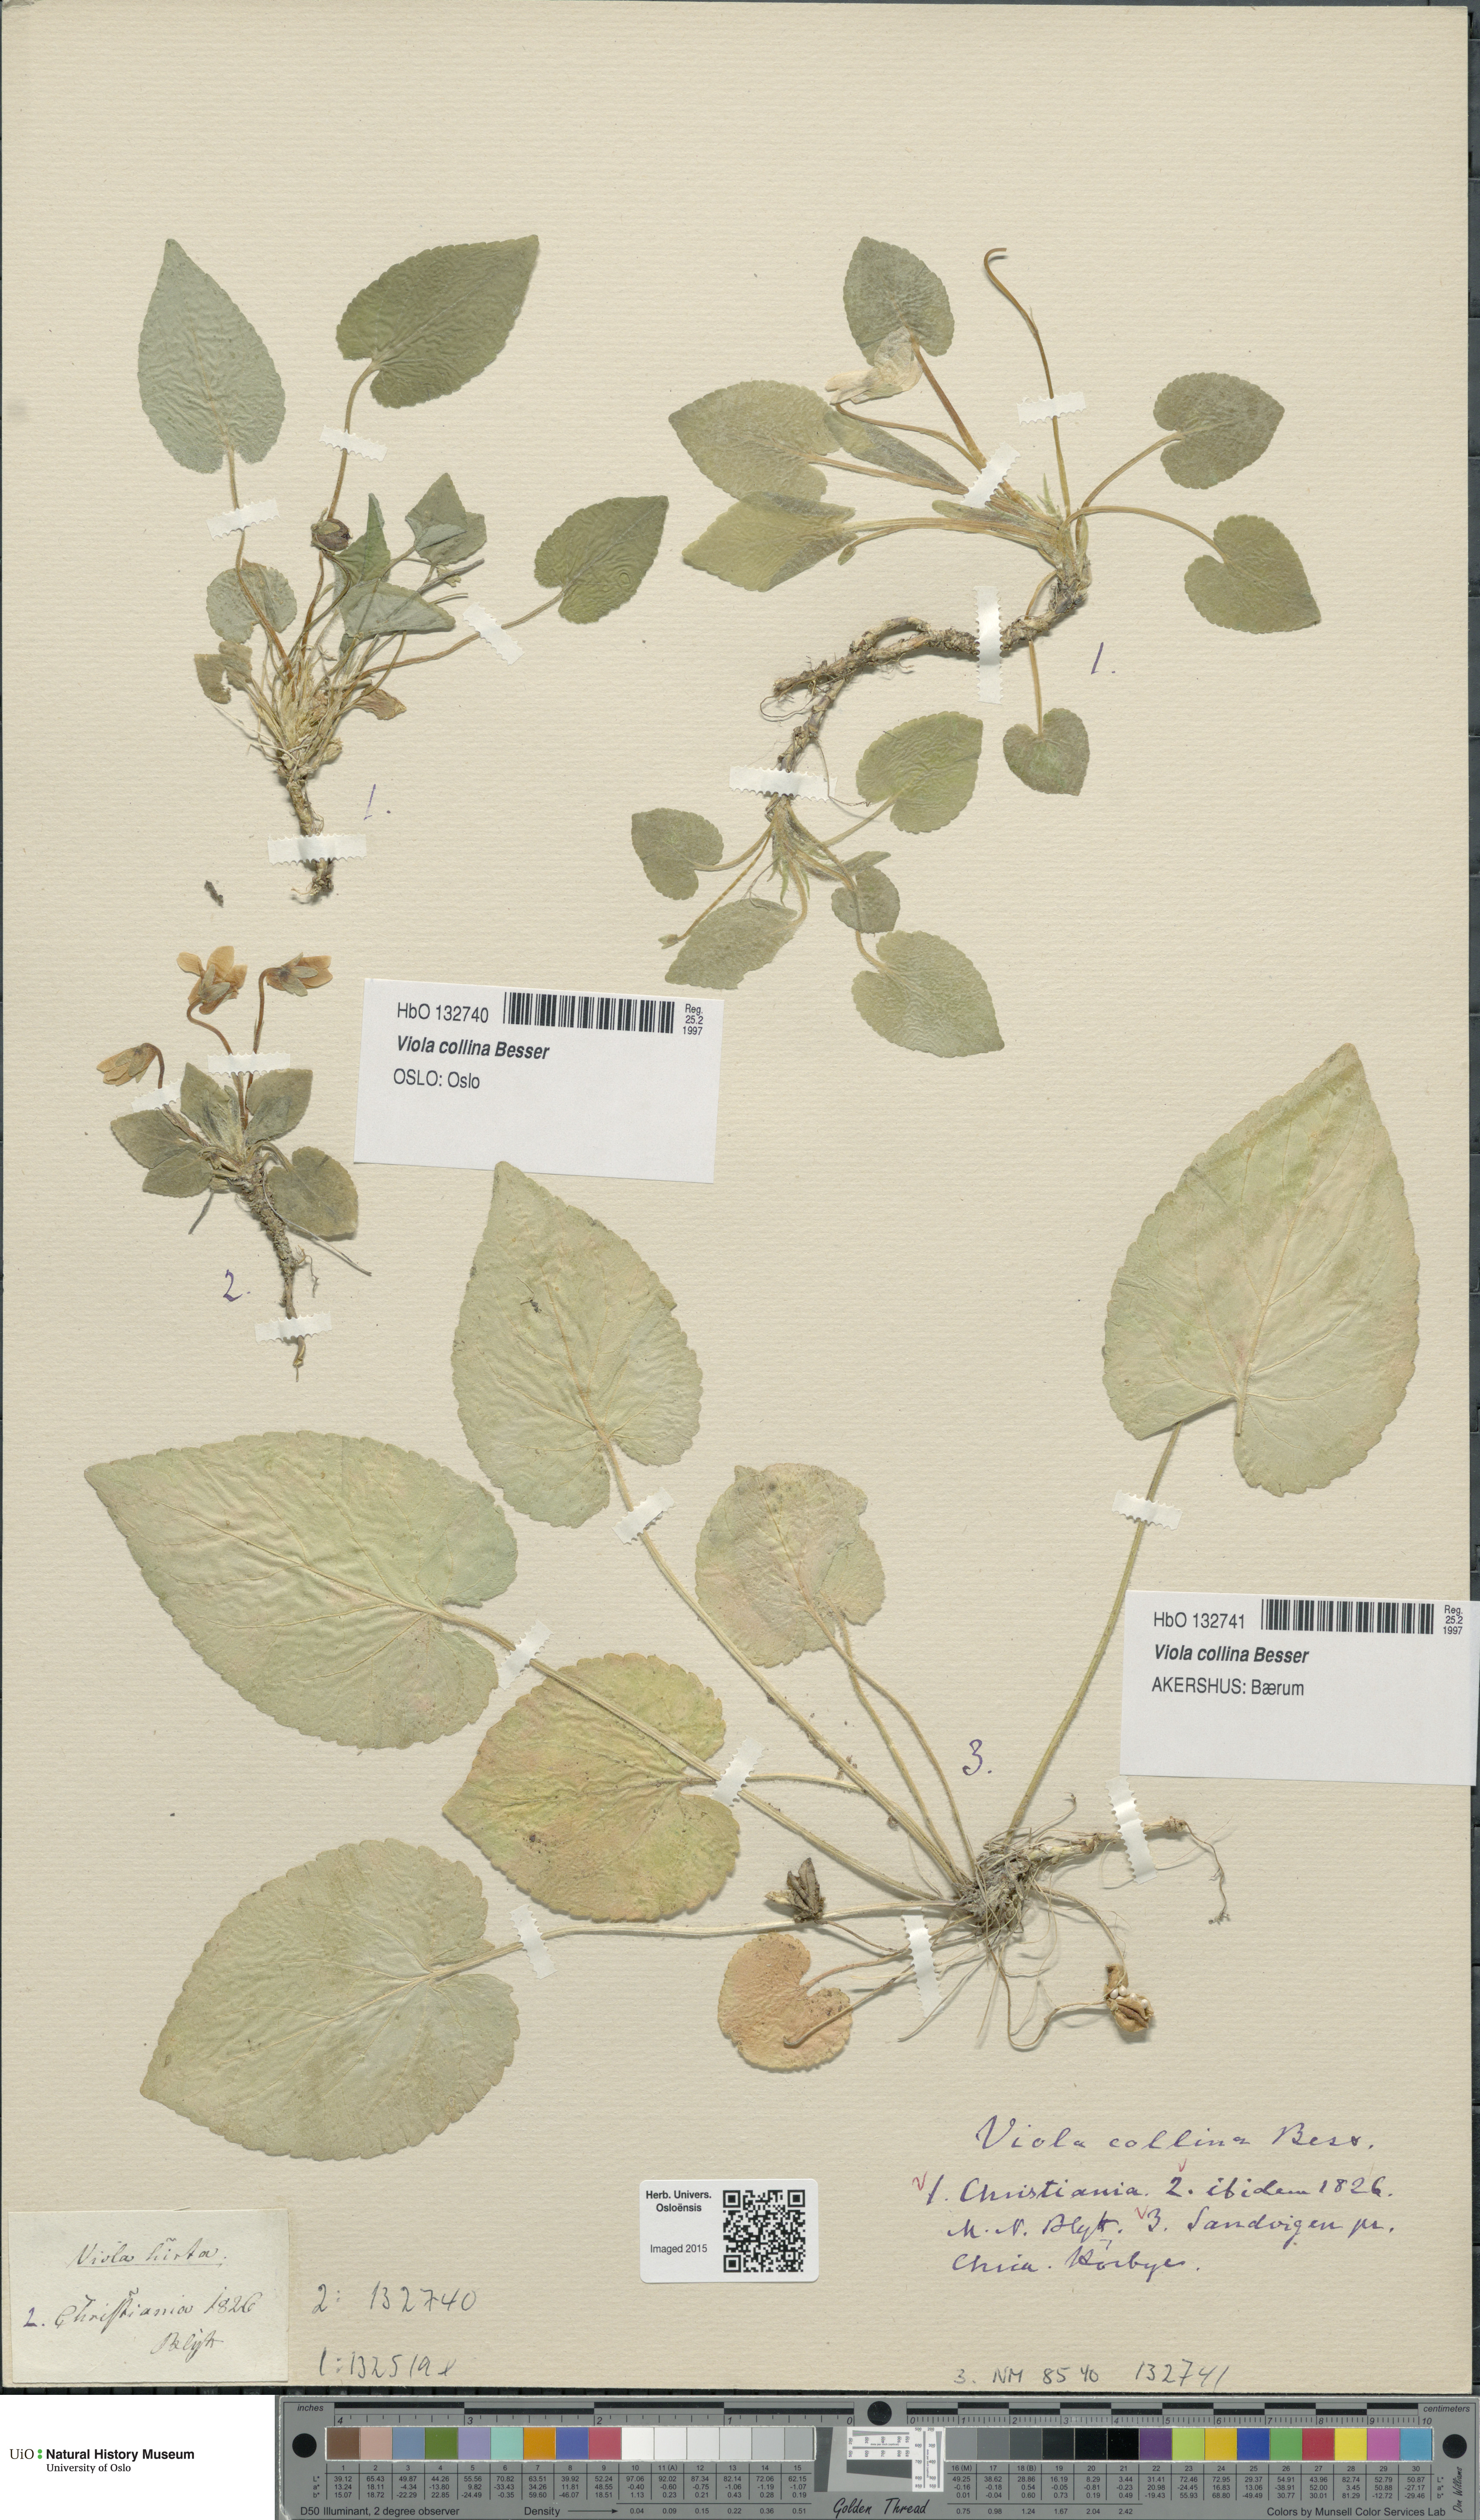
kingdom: Plantae
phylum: Tracheophyta
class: Magnoliopsida
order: Malpighiales
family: Violaceae
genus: Viola
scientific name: Viola collina
